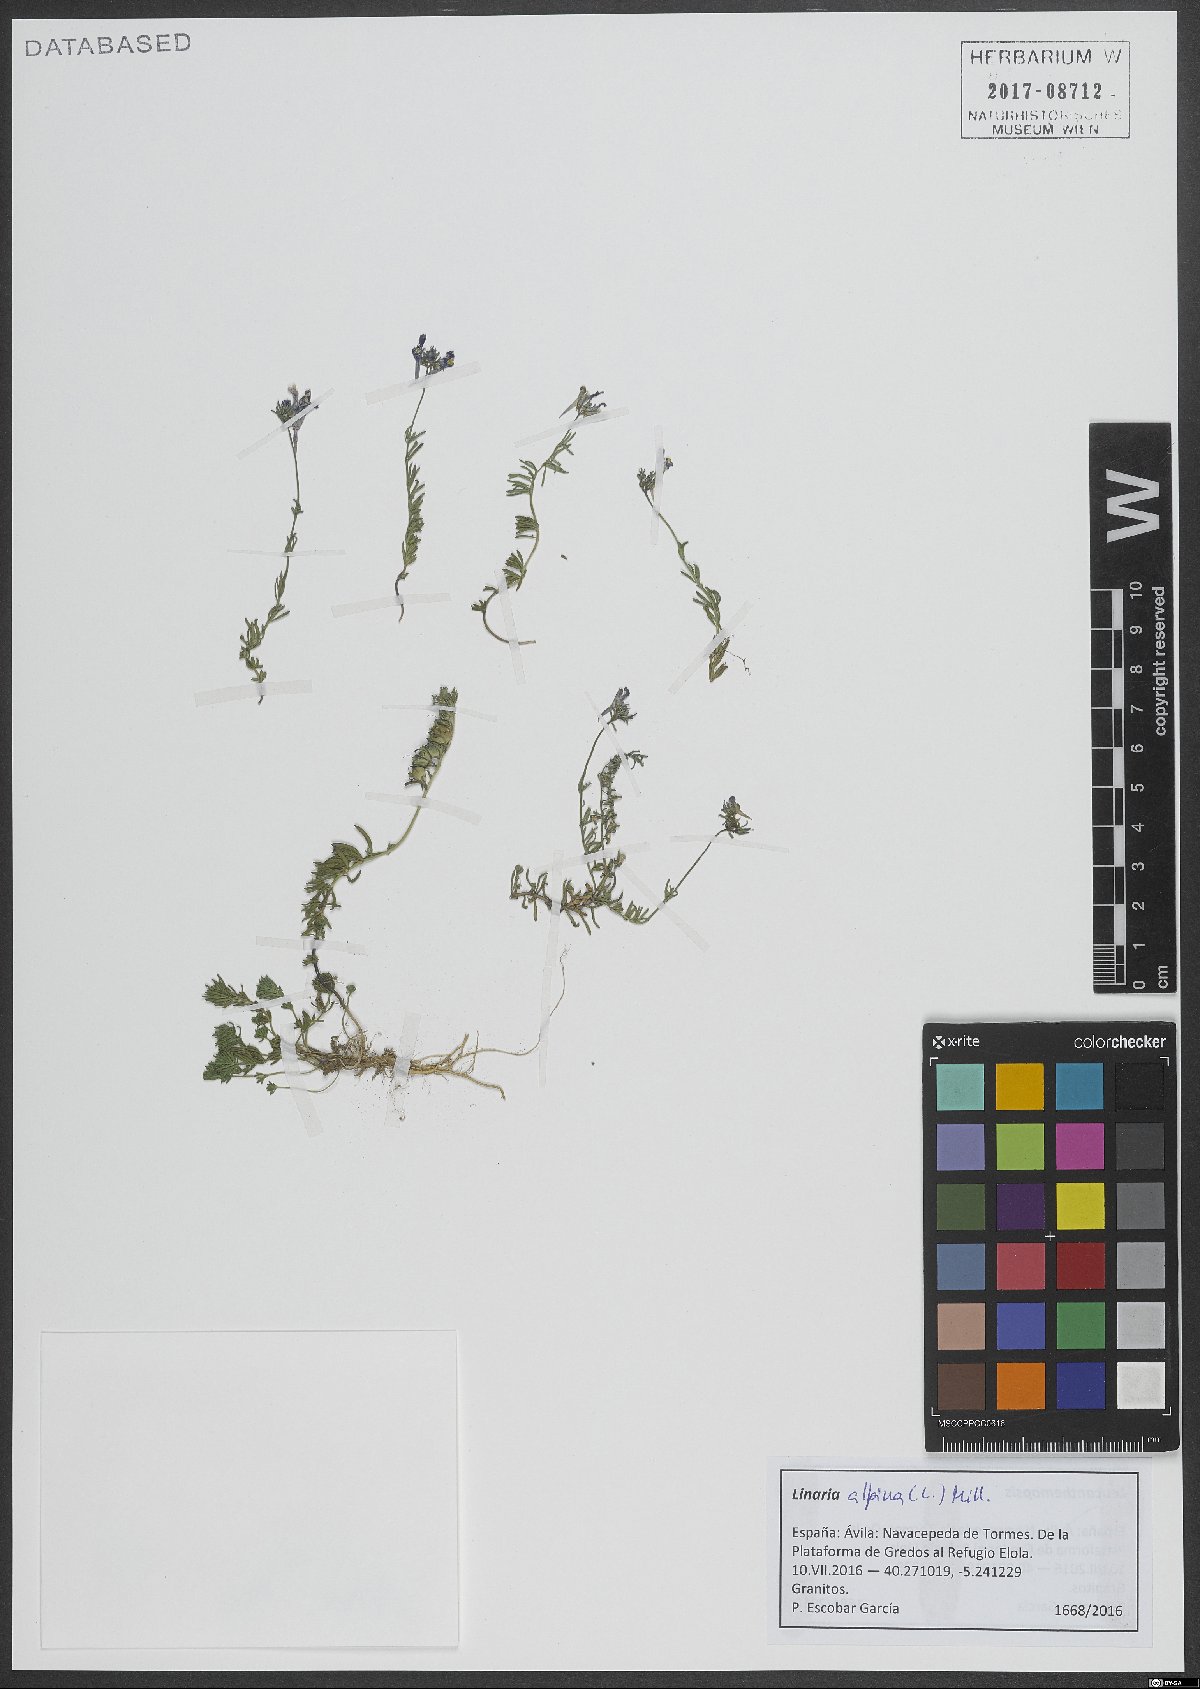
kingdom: Plantae
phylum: Tracheophyta
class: Magnoliopsida
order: Lamiales
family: Plantaginaceae
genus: Linaria
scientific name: Linaria alpina
